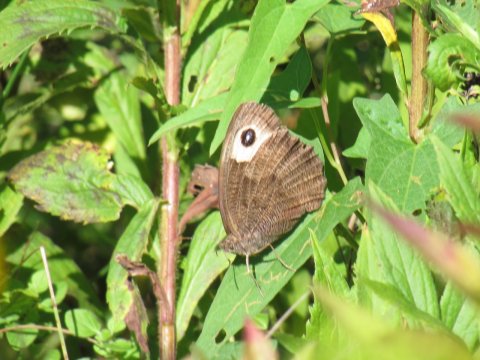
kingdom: Animalia
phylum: Arthropoda
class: Insecta
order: Lepidoptera
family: Nymphalidae
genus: Cercyonis
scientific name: Cercyonis pegala
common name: Common Wood-Nymph
